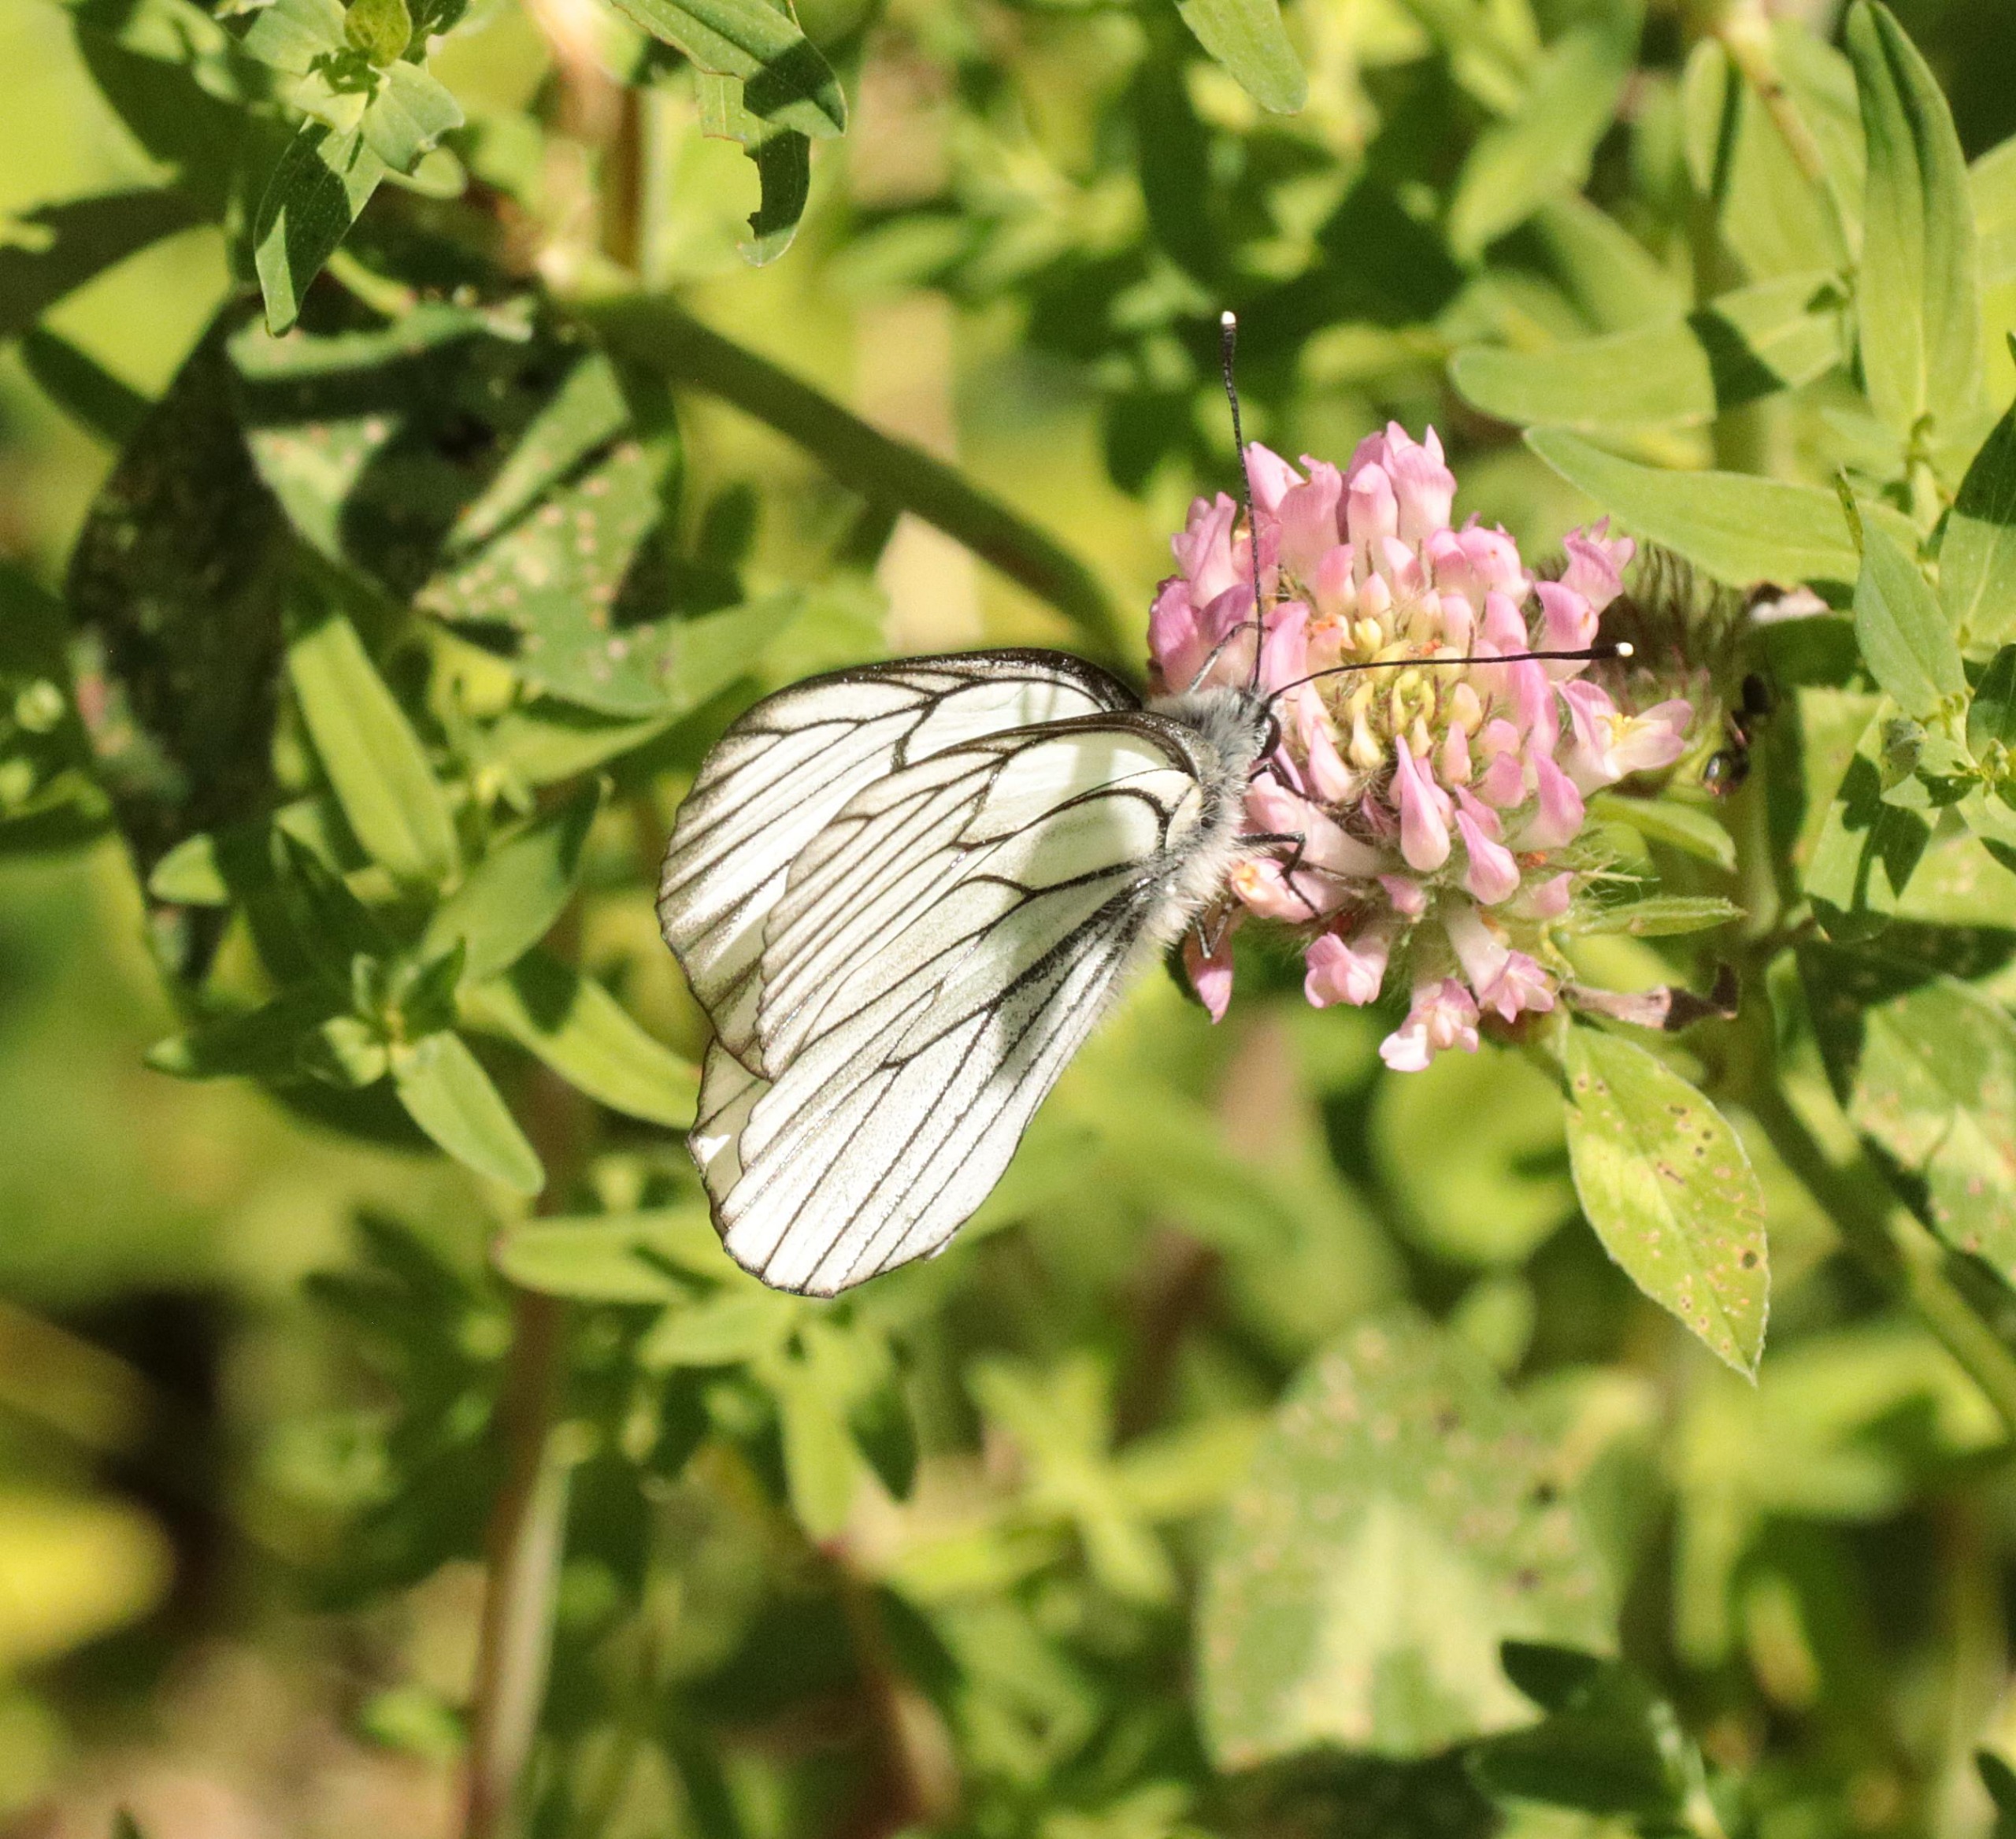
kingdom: Animalia
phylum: Arthropoda
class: Insecta
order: Lepidoptera
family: Pieridae
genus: Aporia
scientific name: Aporia crataegi
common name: Sortåret hvidvinge
